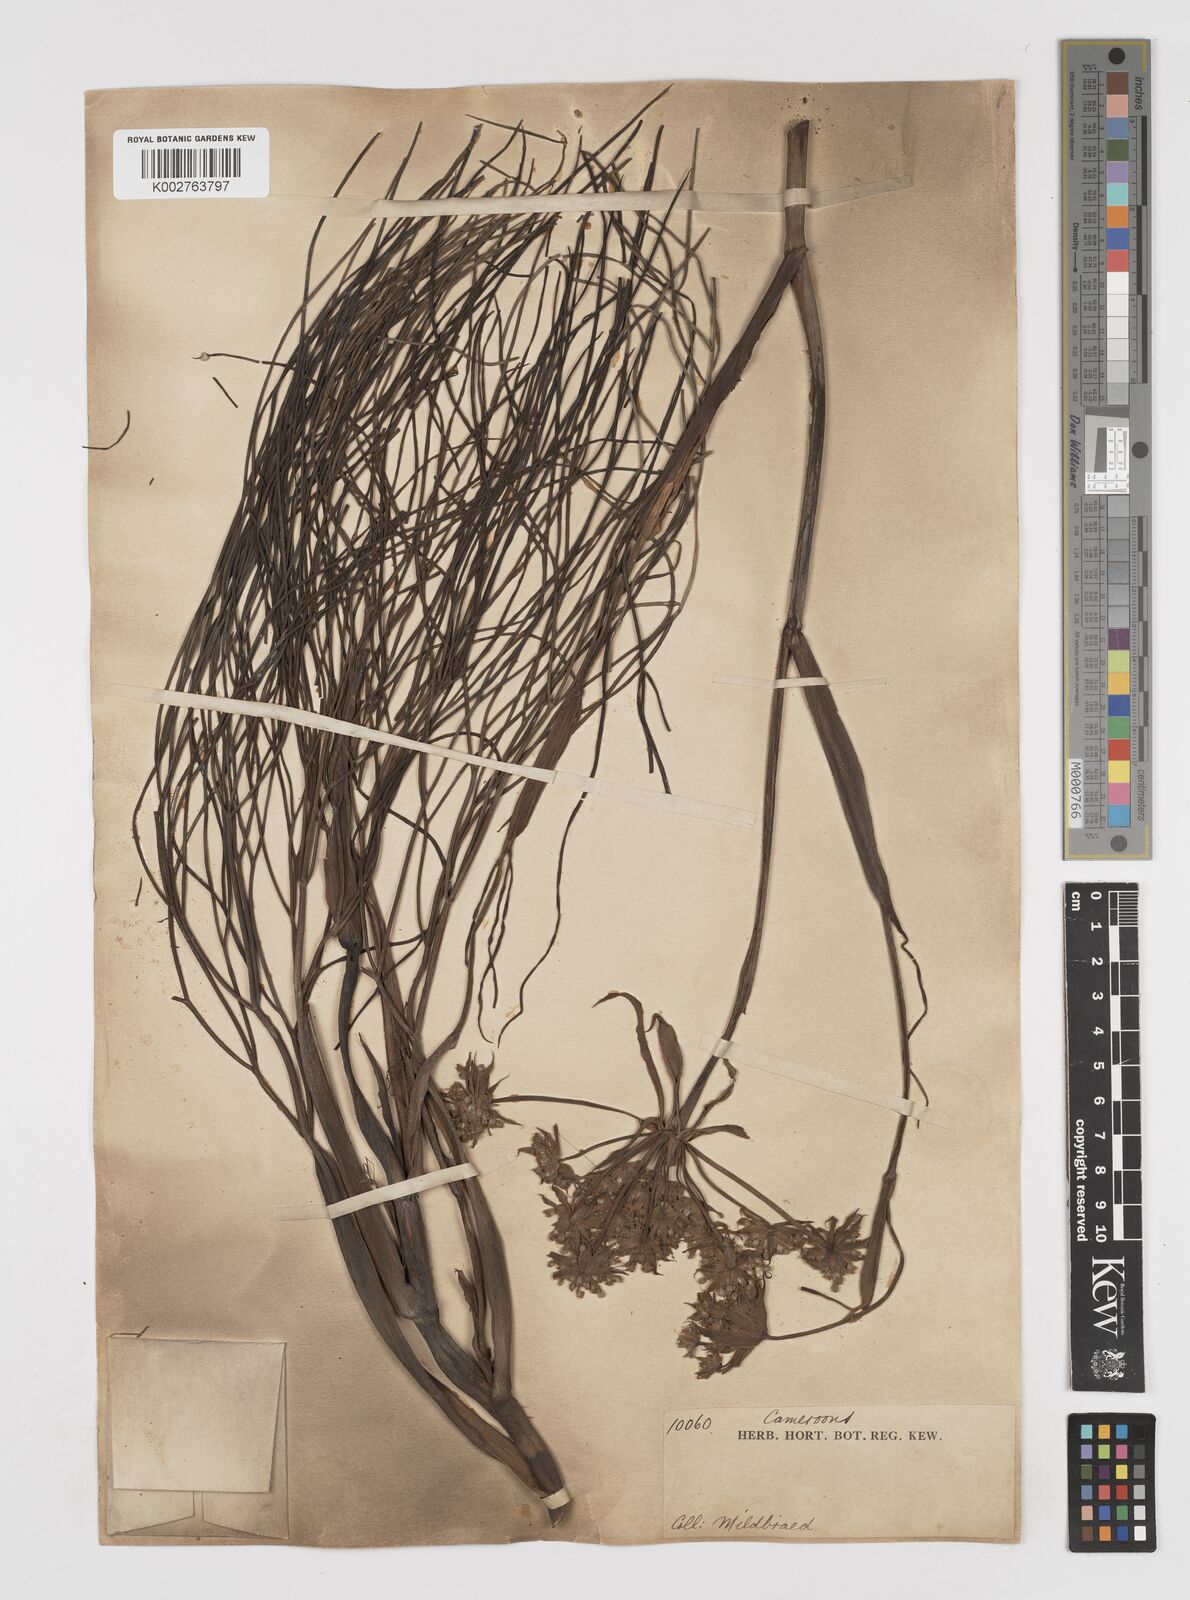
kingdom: Plantae
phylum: Tracheophyta
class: Magnoliopsida
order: Apiales
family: Apiaceae
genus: Diplolophium
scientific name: Diplolophium africanum
